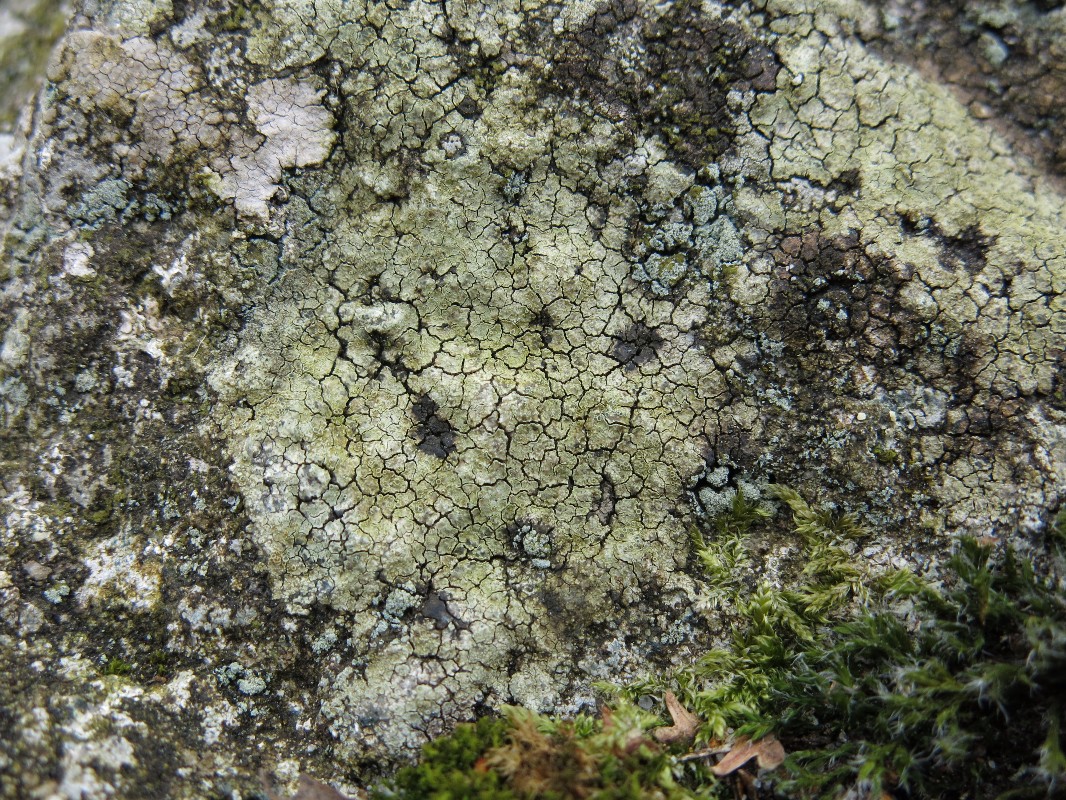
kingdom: Fungi
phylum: Ascomycota
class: Lecanoromycetes
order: Lecanorales
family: Lecanoraceae
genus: Glaucomaria
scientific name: Glaucomaria sulphurea
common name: svovlgul kantskivelav
